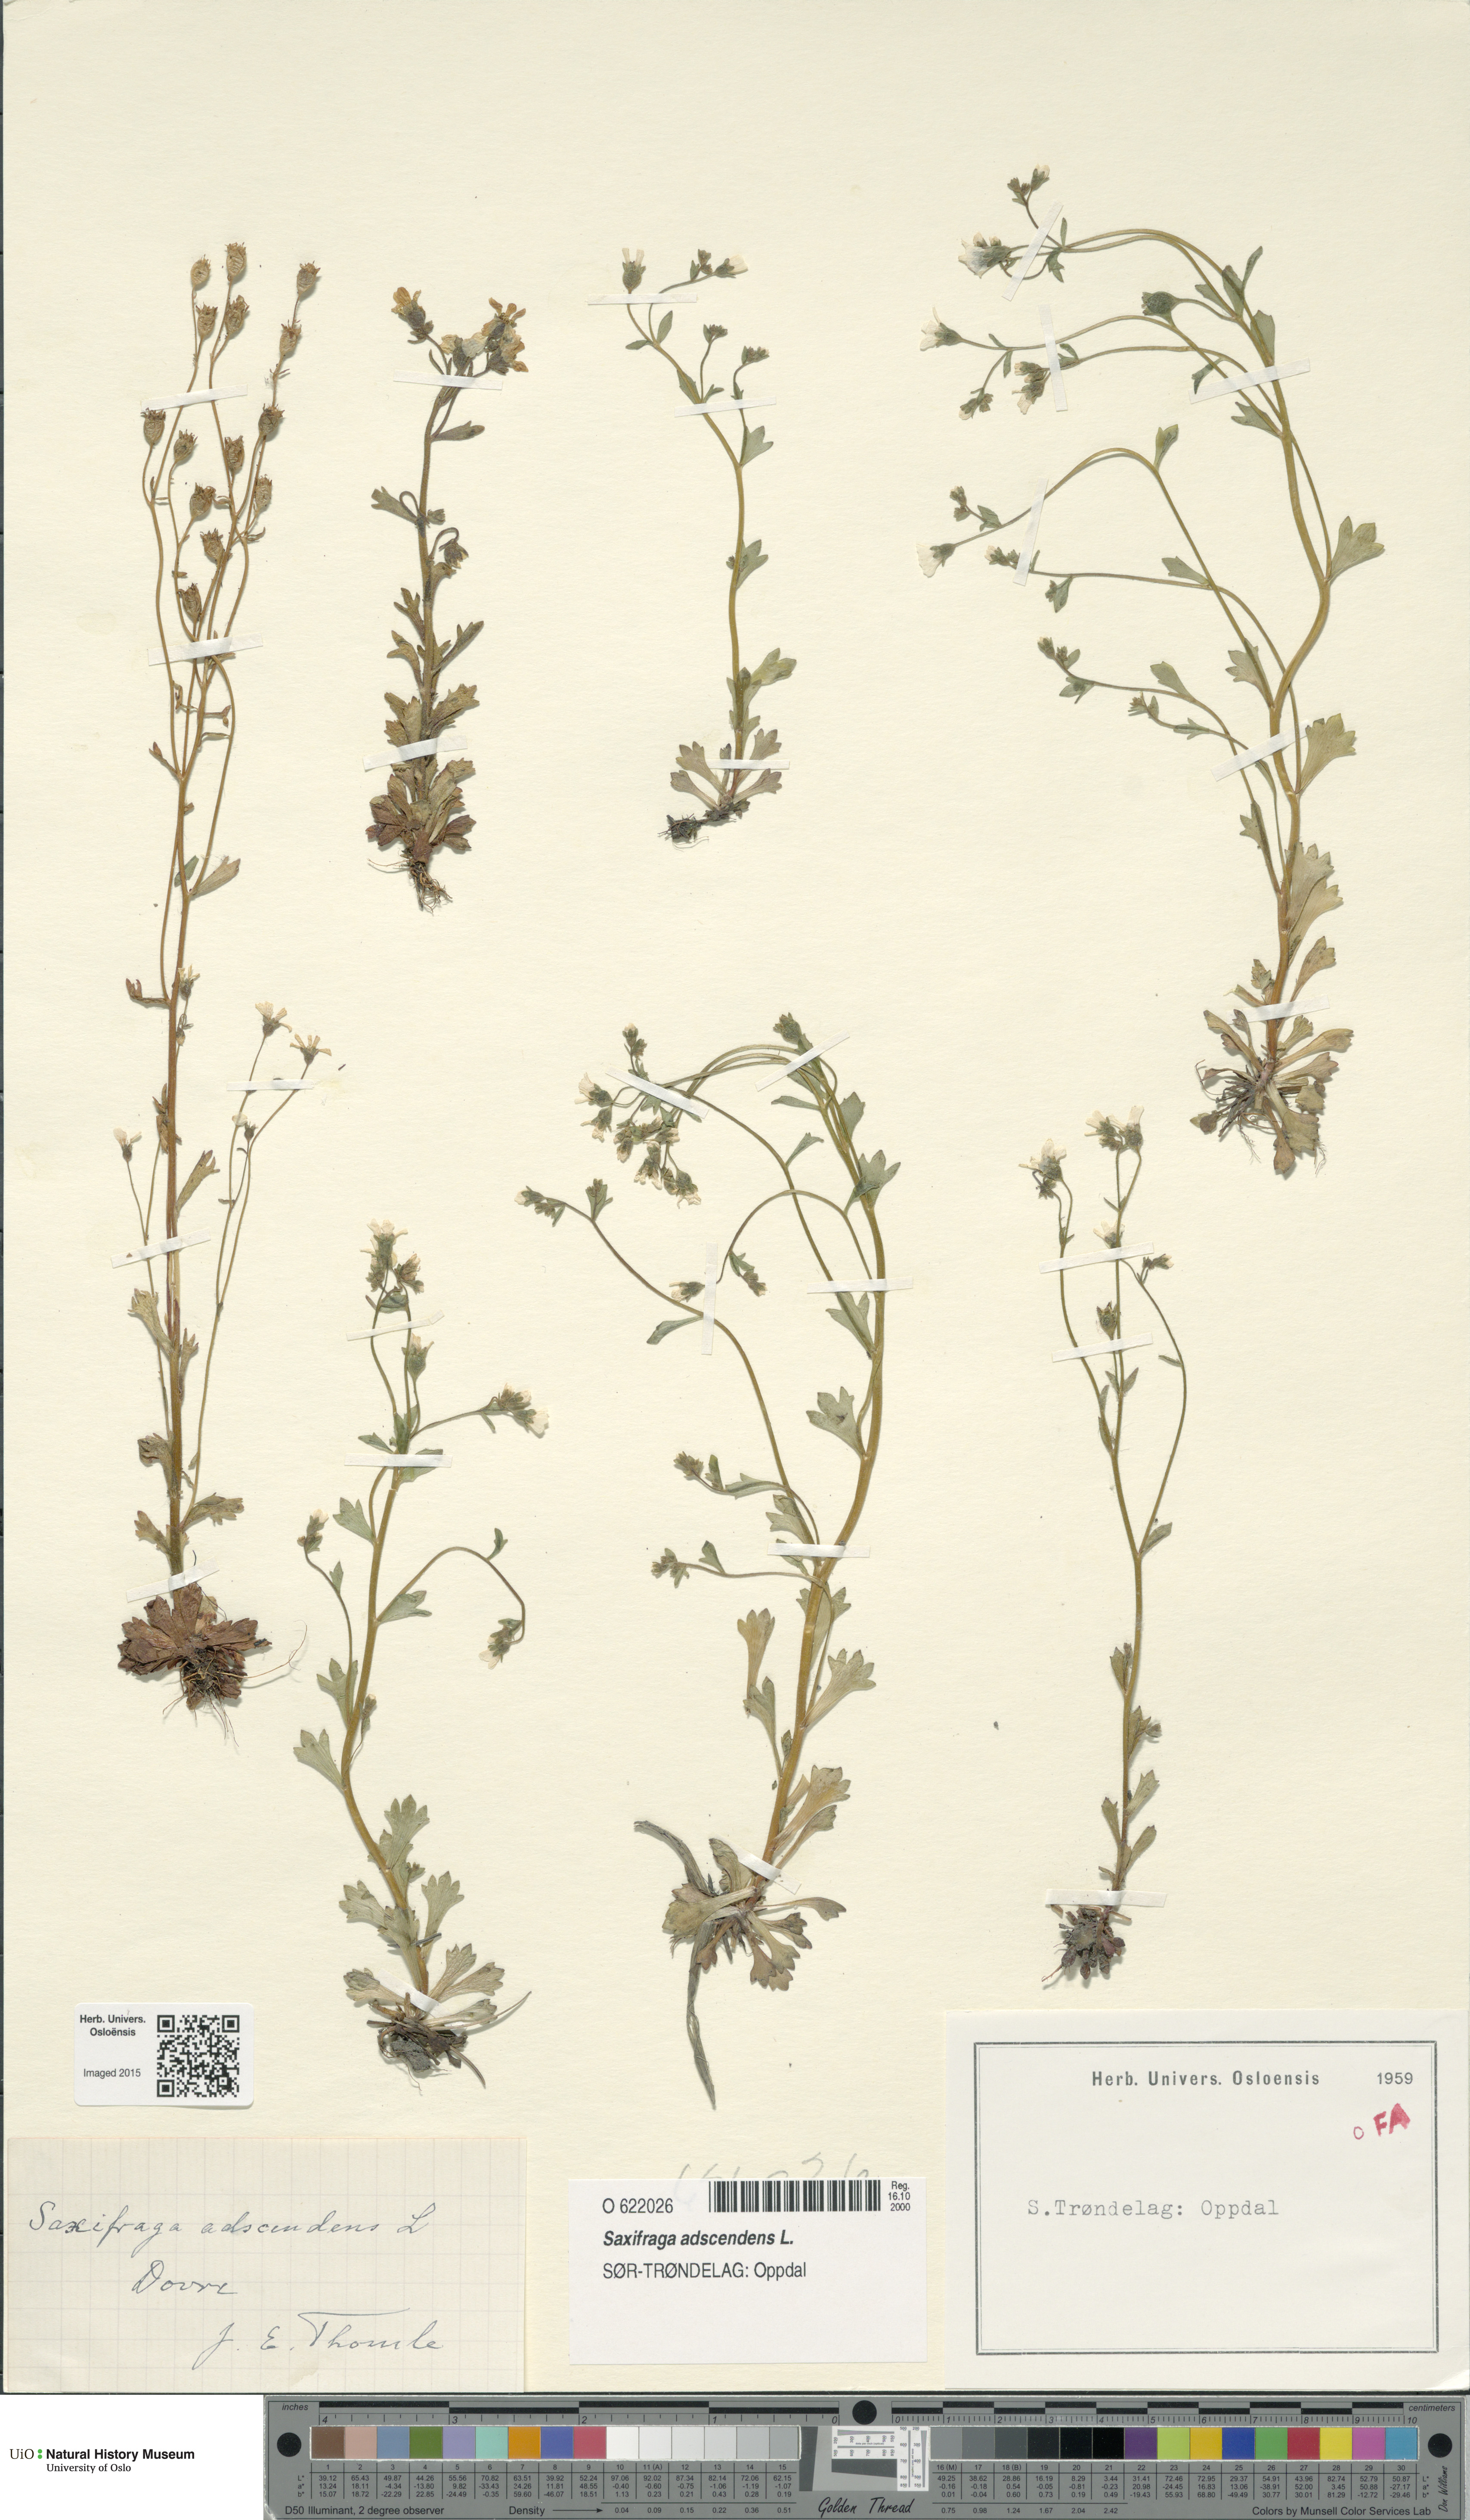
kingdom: Plantae
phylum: Tracheophyta
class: Magnoliopsida
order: Saxifragales
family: Saxifragaceae
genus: Saxifraga
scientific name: Saxifraga adscendens
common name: Ascending saxifrage
